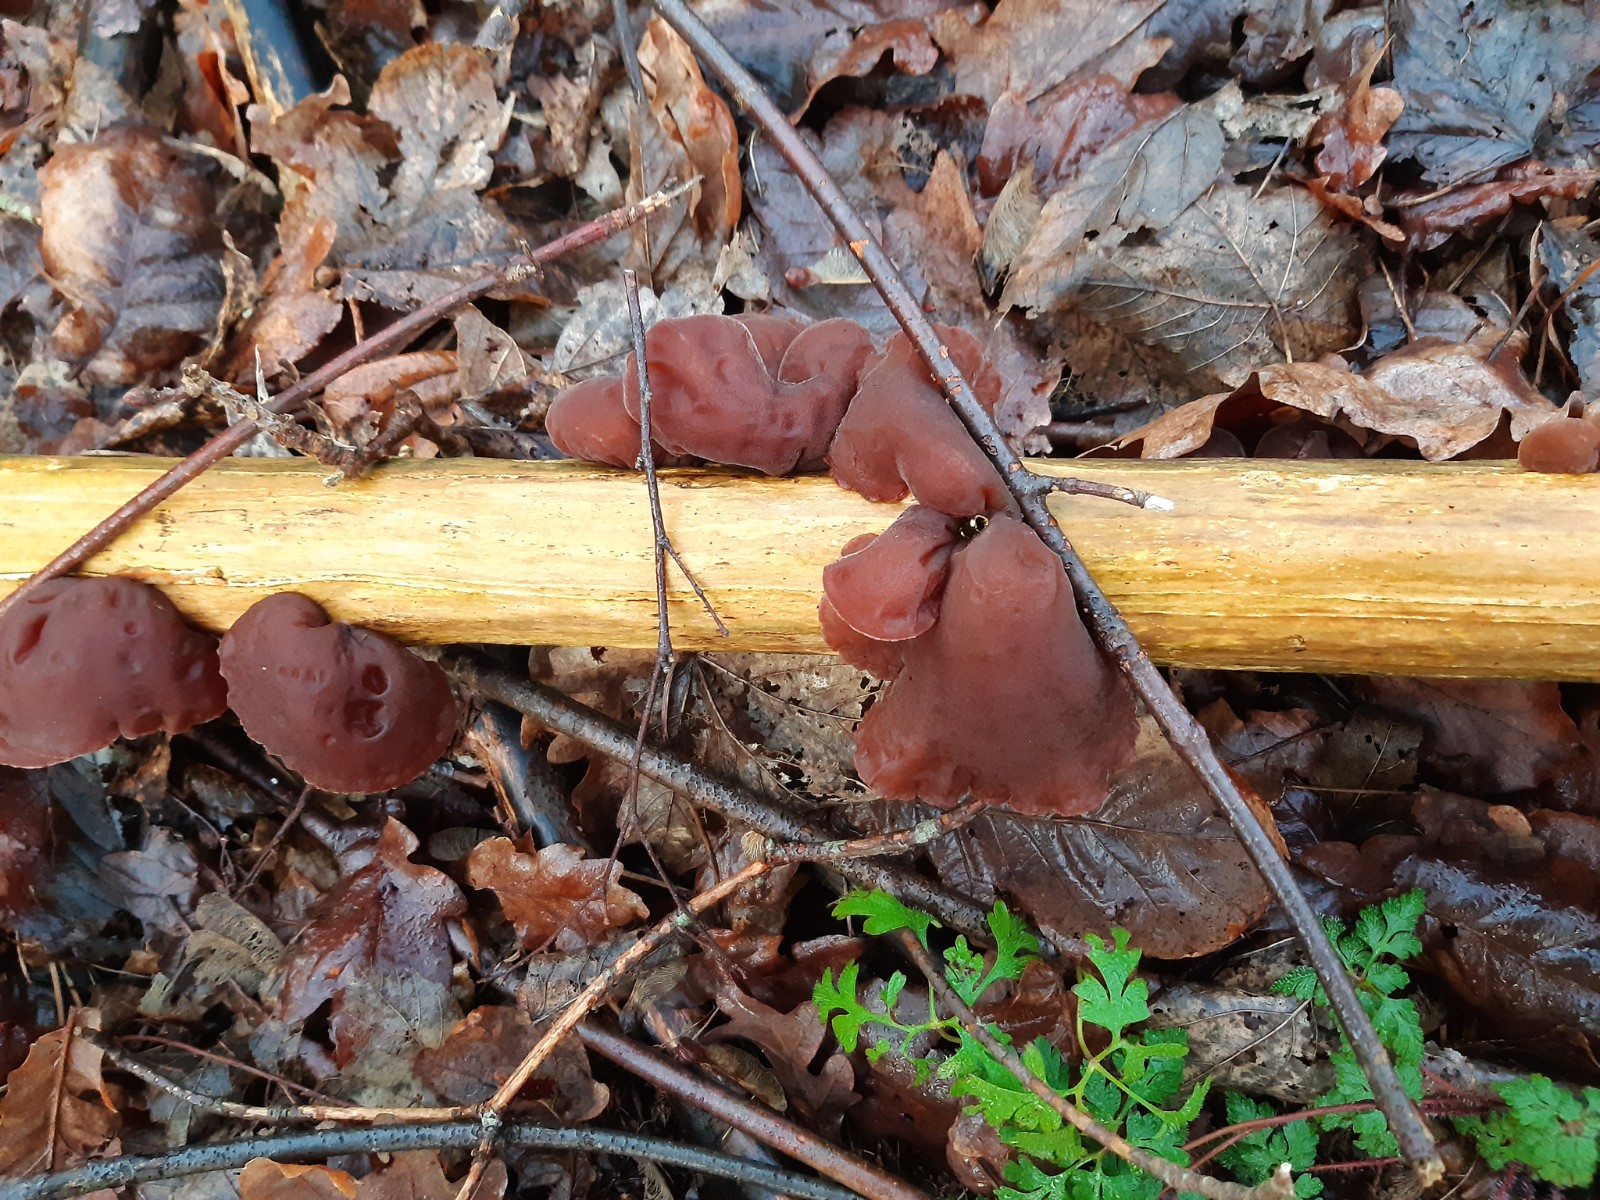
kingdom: Fungi
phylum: Basidiomycota
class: Agaricomycetes
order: Auriculariales
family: Auriculariaceae
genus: Auricularia
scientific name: Auricularia auricula-judae
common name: almindelig judasøre
